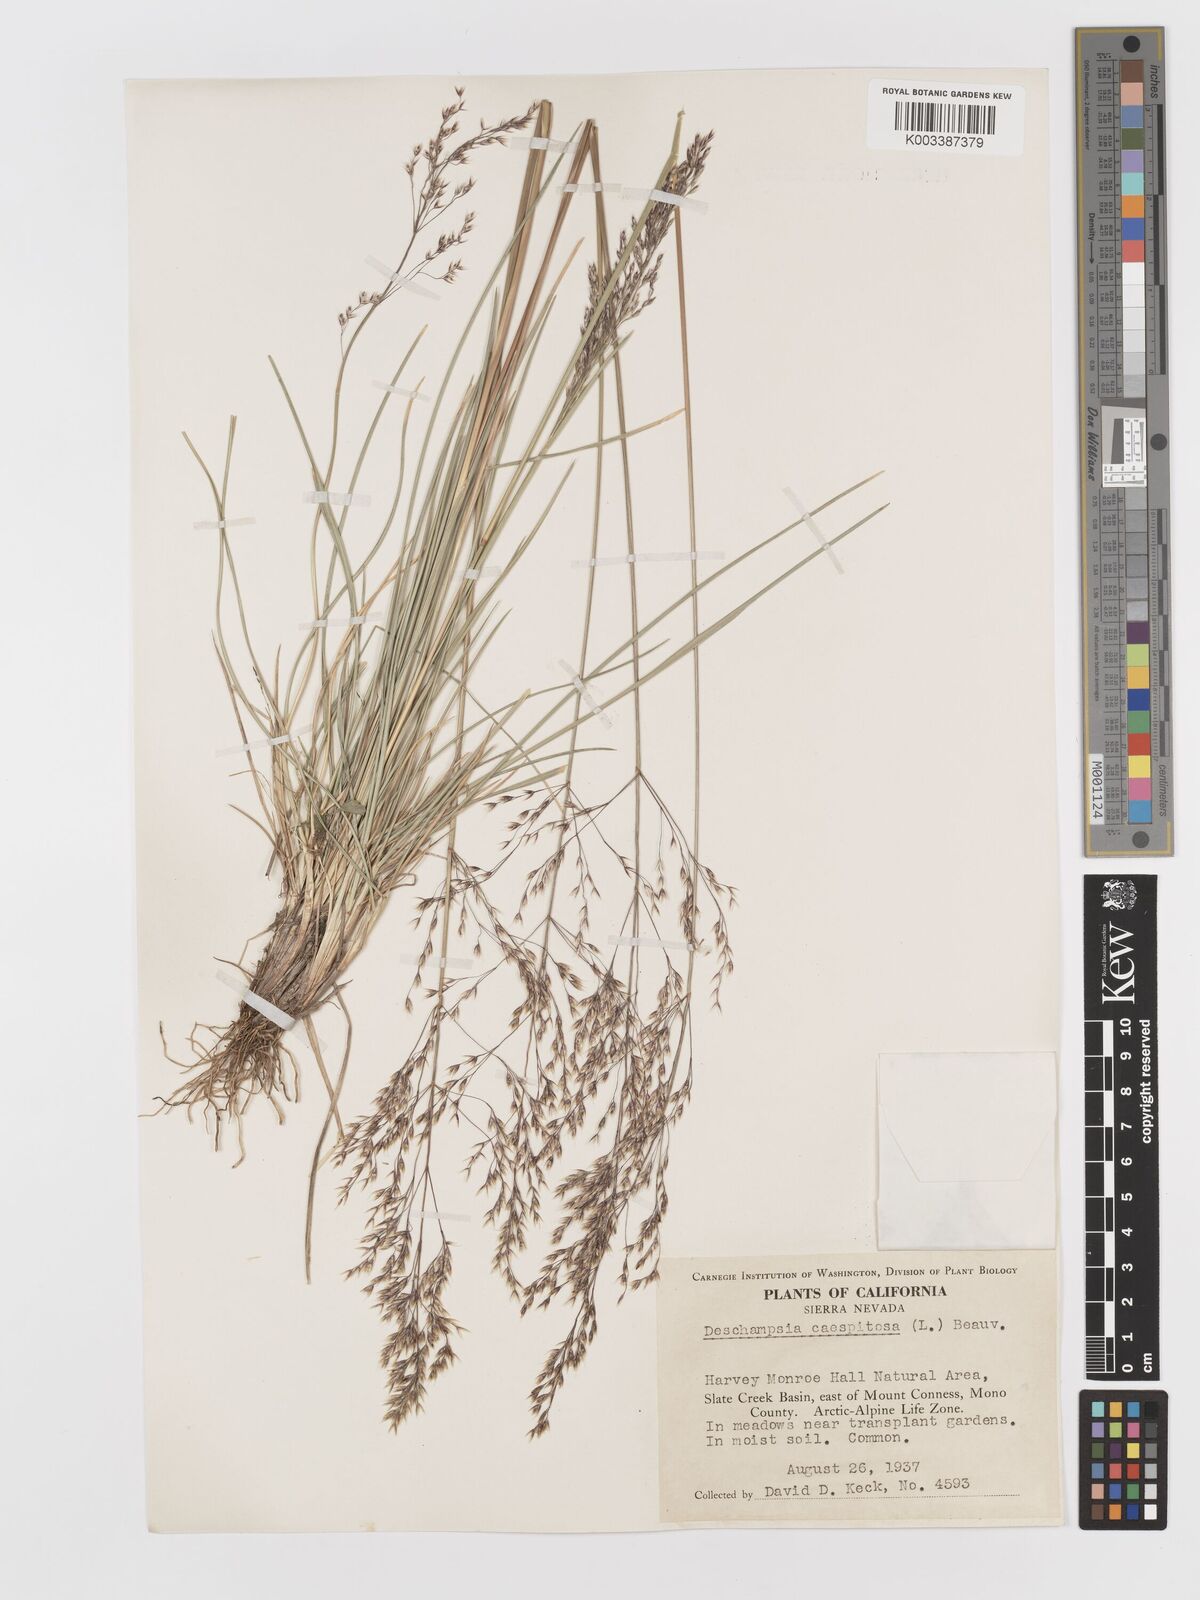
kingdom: Plantae
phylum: Tracheophyta
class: Liliopsida
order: Poales
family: Poaceae
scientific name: Poaceae
